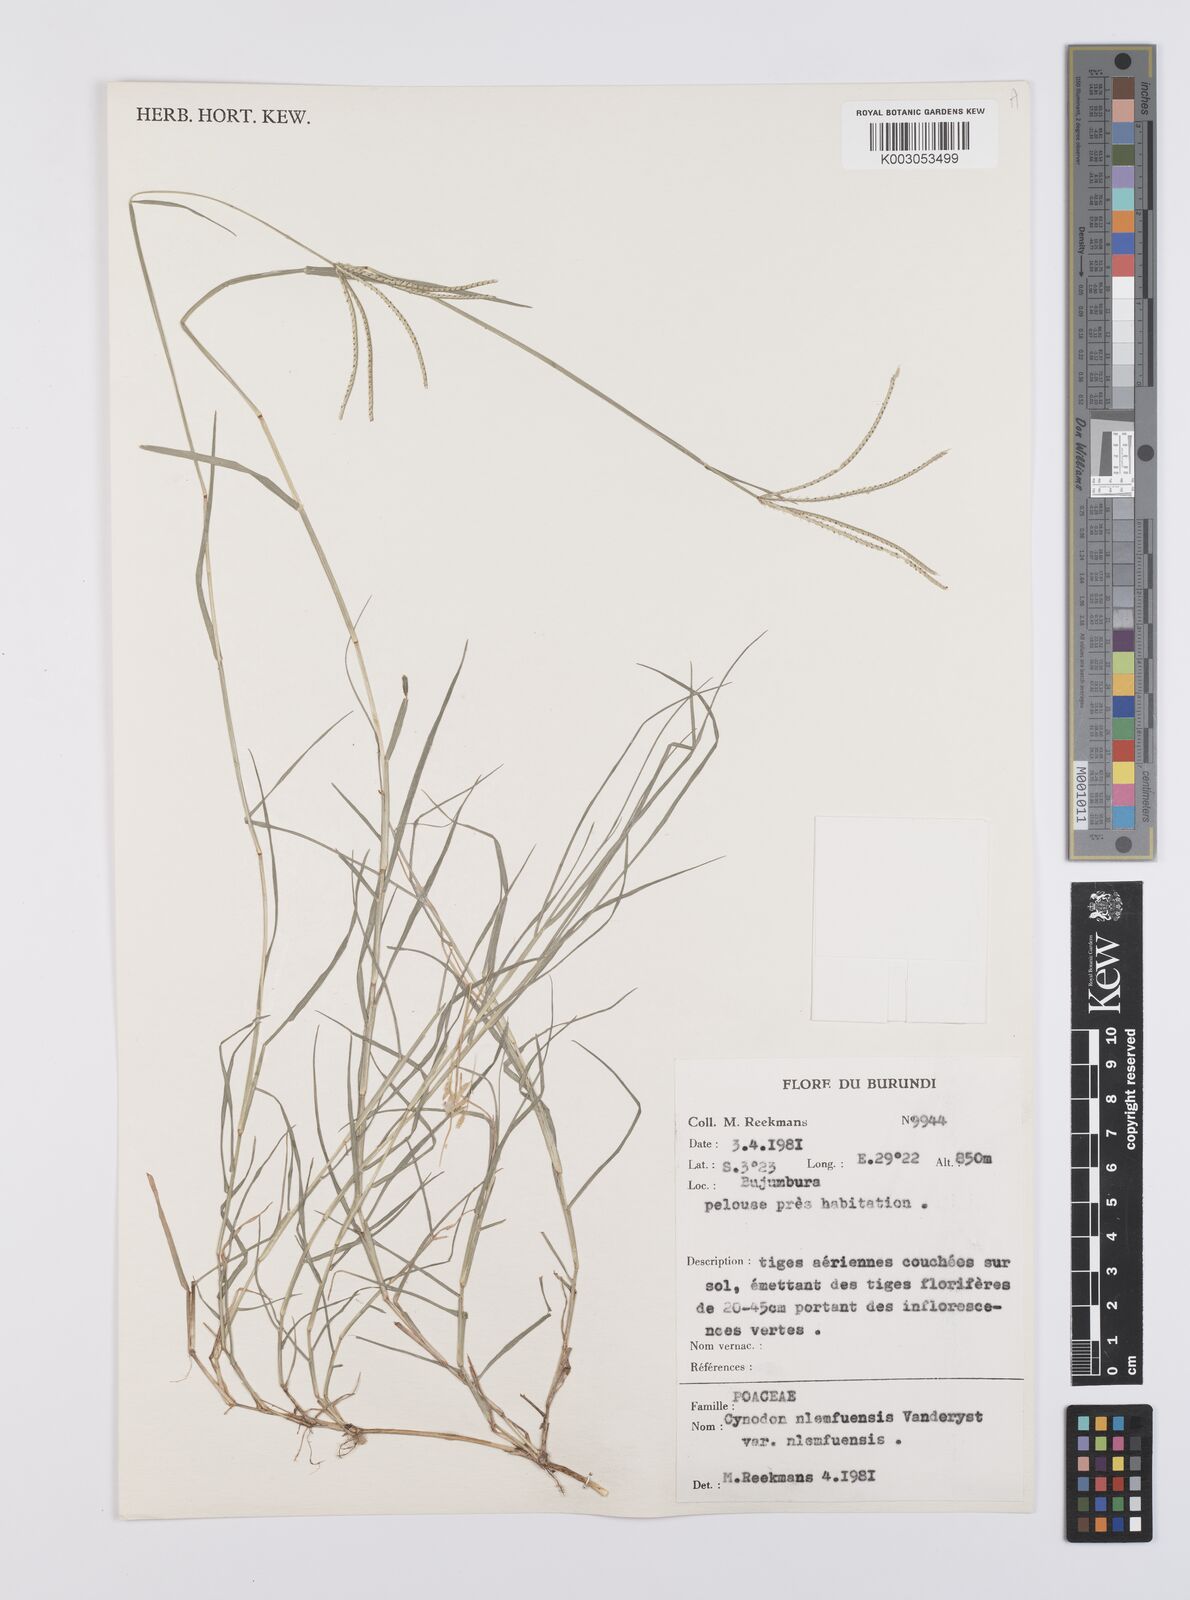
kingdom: Plantae
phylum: Tracheophyta
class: Liliopsida
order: Poales
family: Poaceae
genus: Cynodon
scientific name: Cynodon nlemfuensis
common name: African bermudagrass
